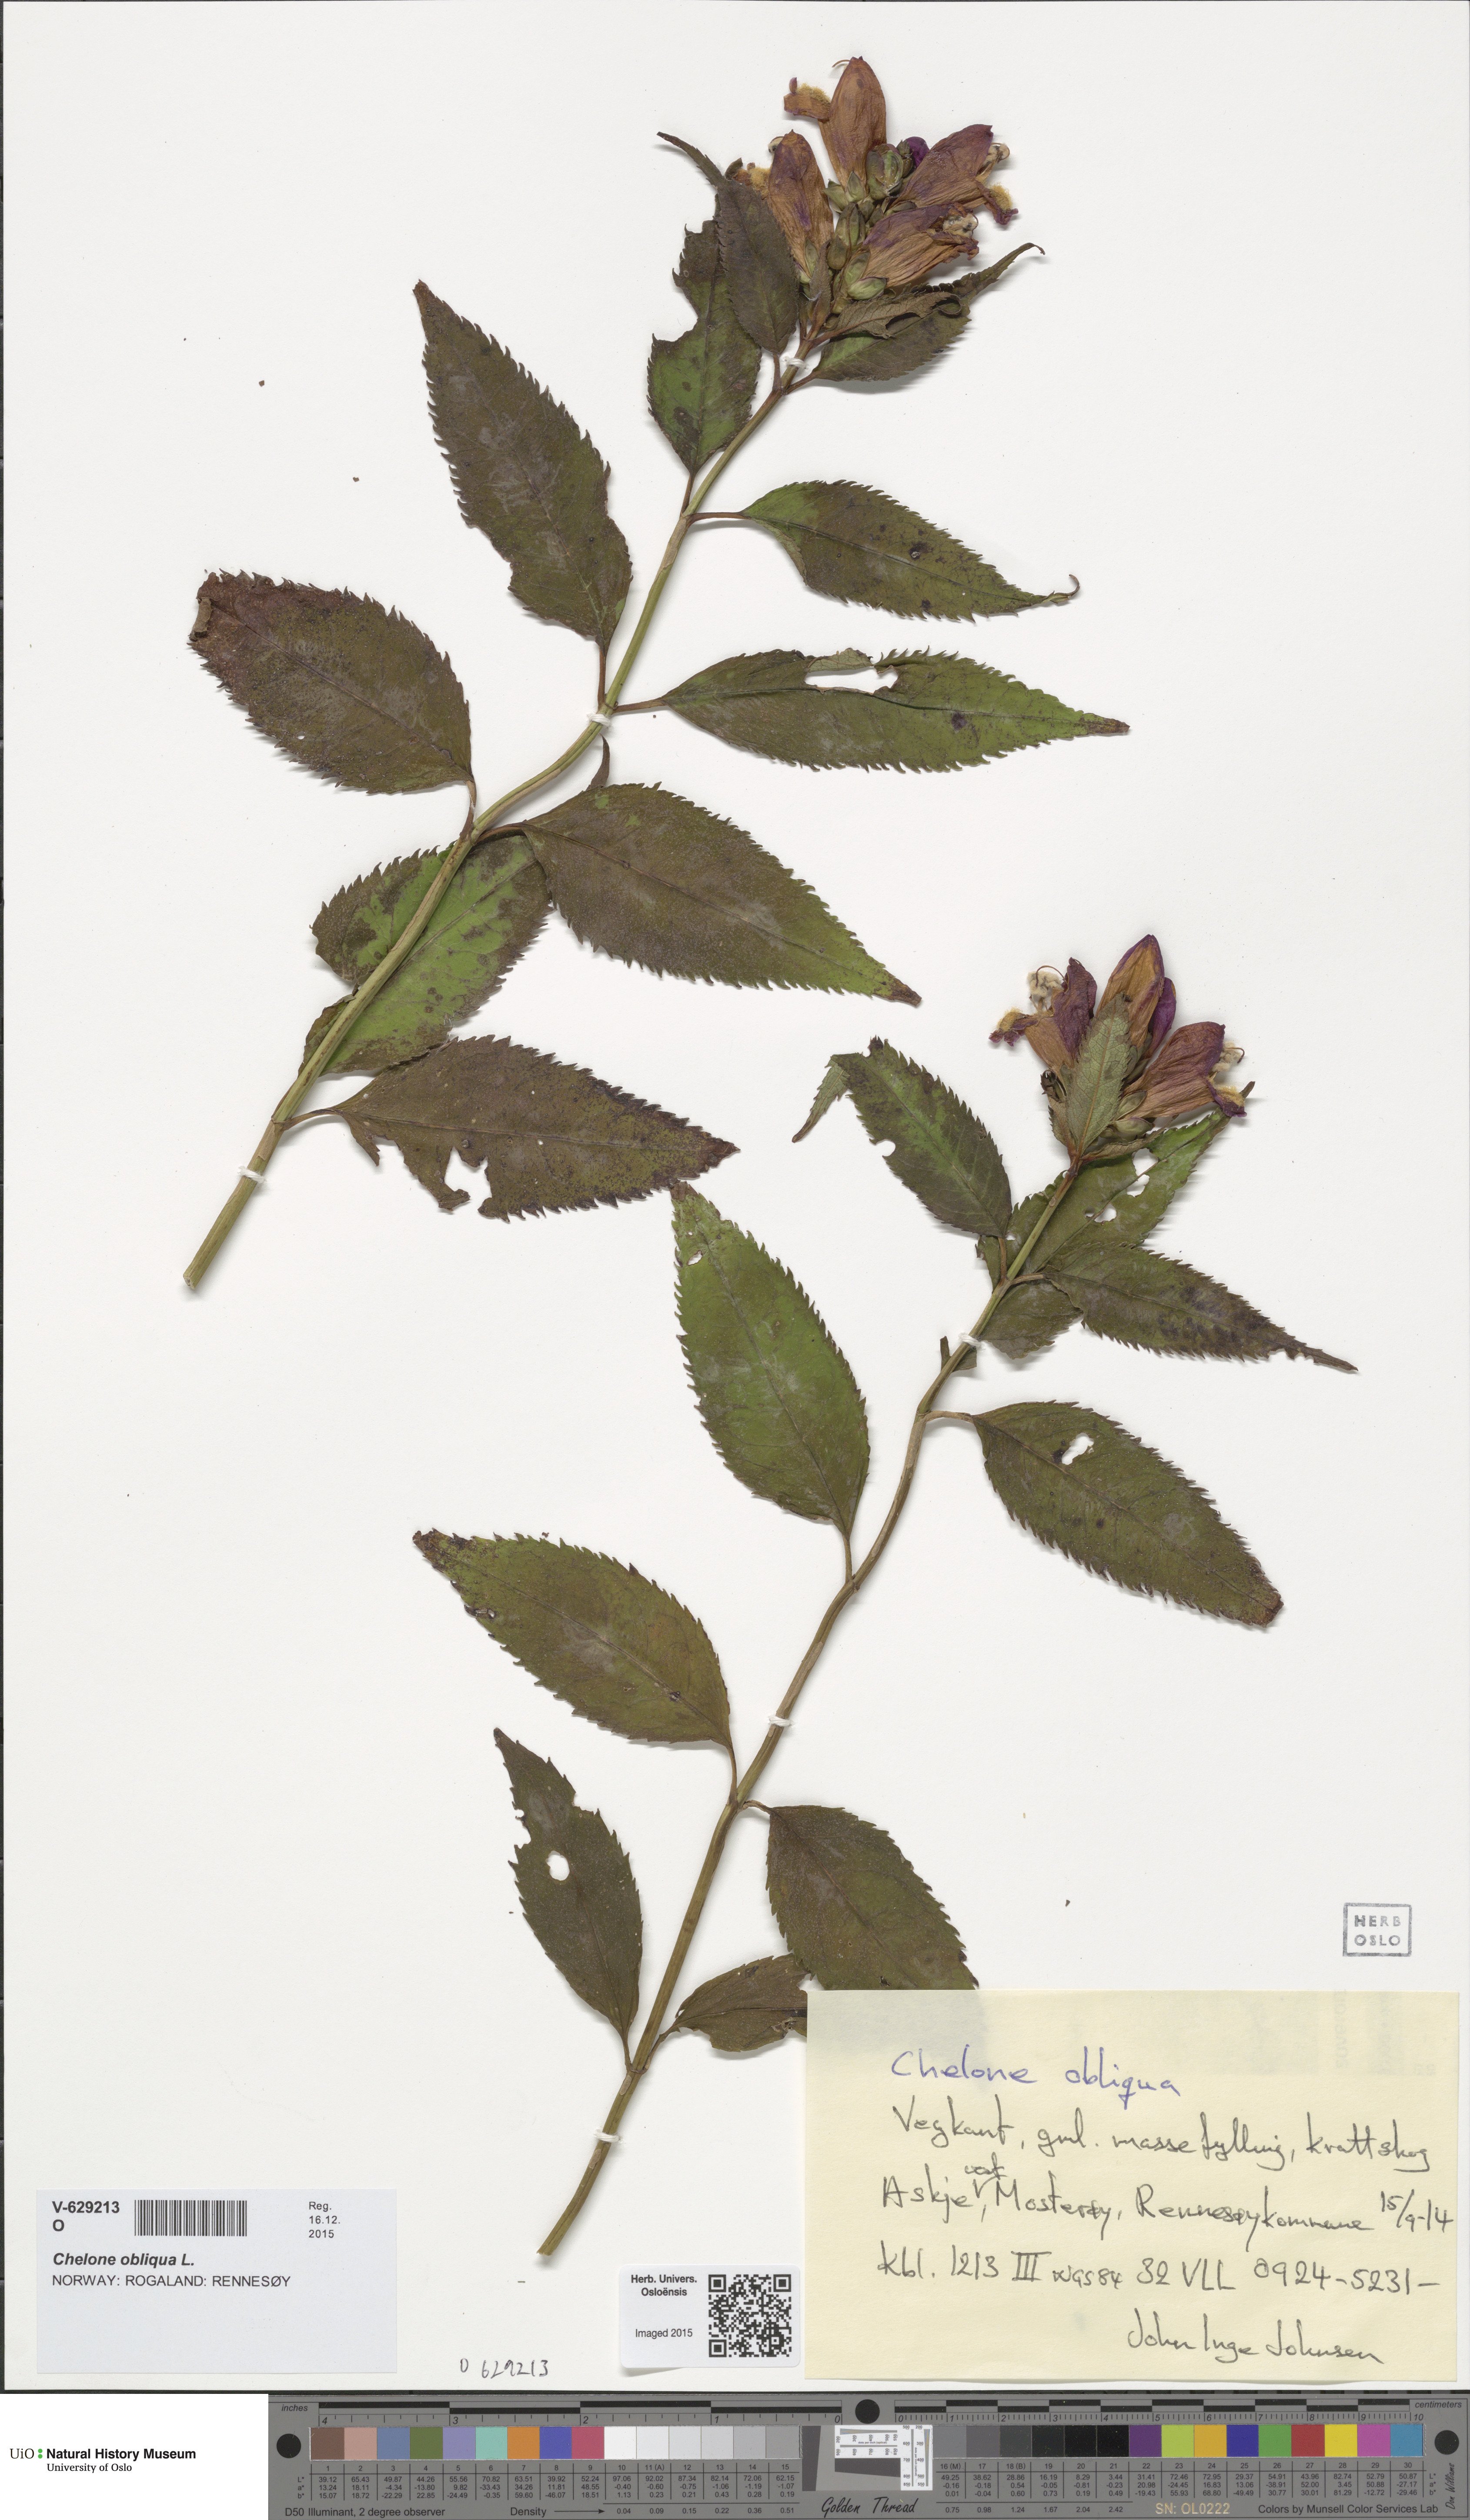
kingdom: Plantae
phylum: Tracheophyta
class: Magnoliopsida
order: Lamiales
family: Plantaginaceae
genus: Chelone
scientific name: Chelone obliqua
